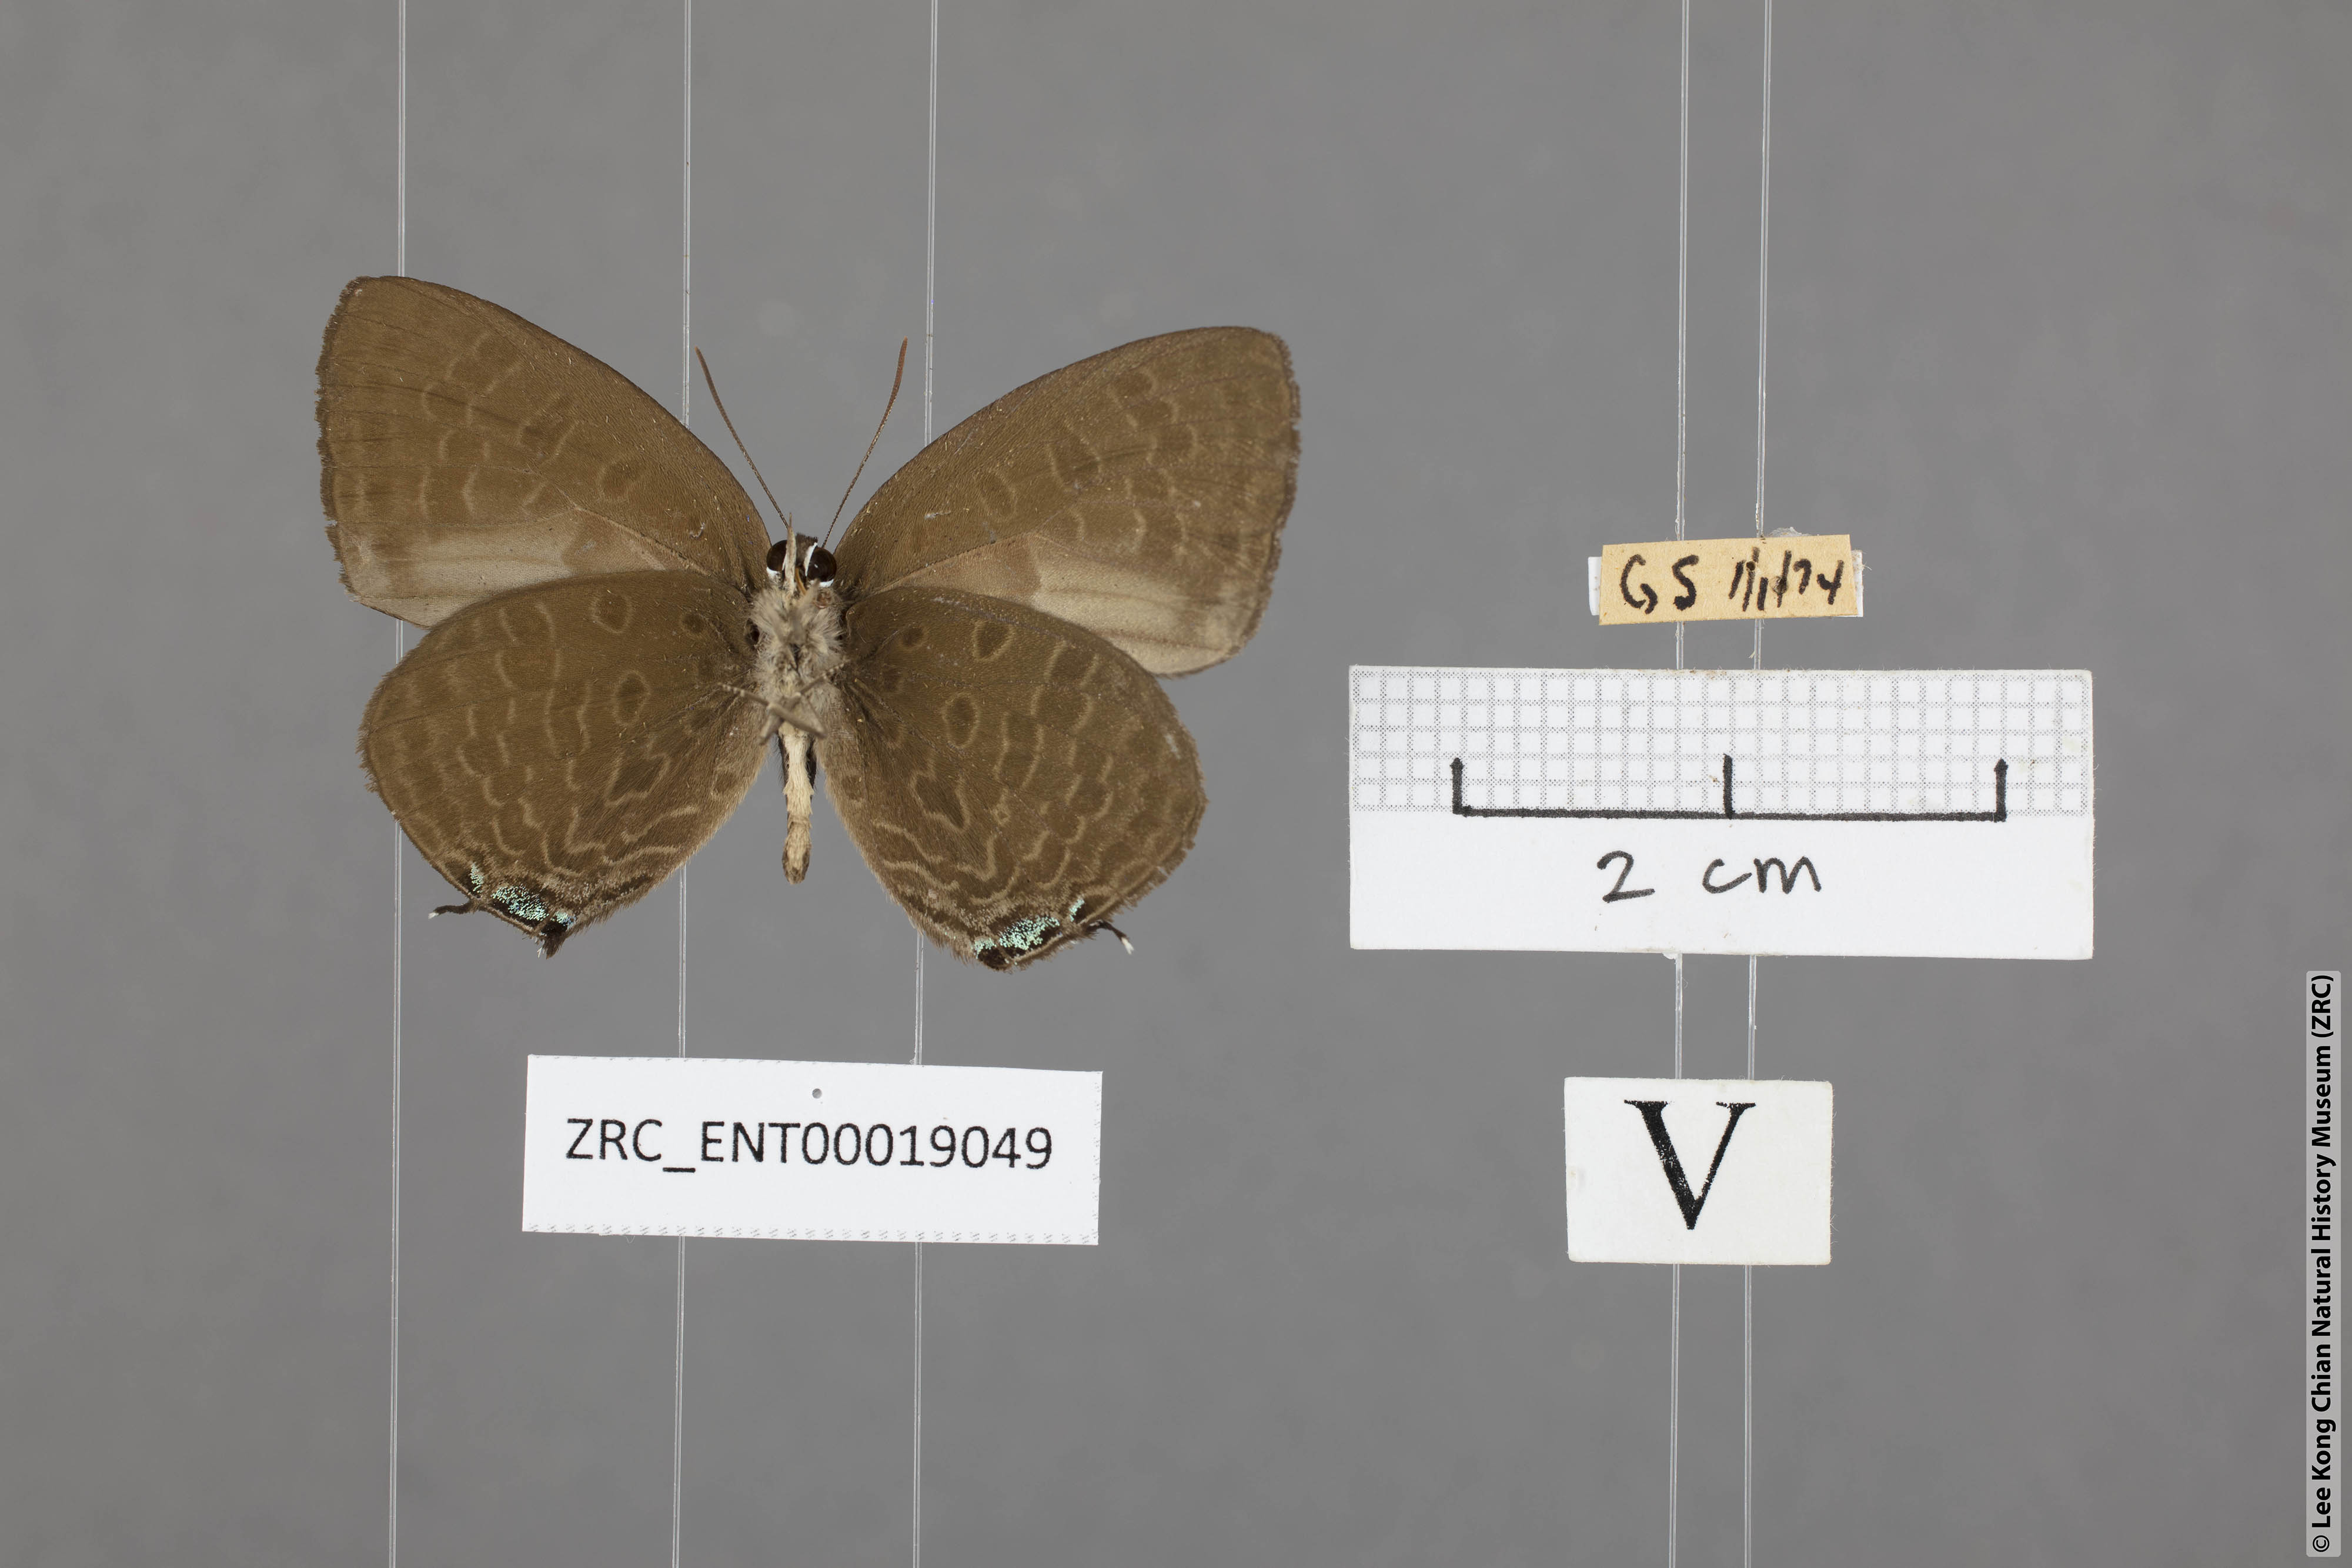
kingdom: Animalia
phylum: Arthropoda
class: Insecta
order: Lepidoptera
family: Lycaenidae
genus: Arhopala
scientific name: Arhopala agrata
